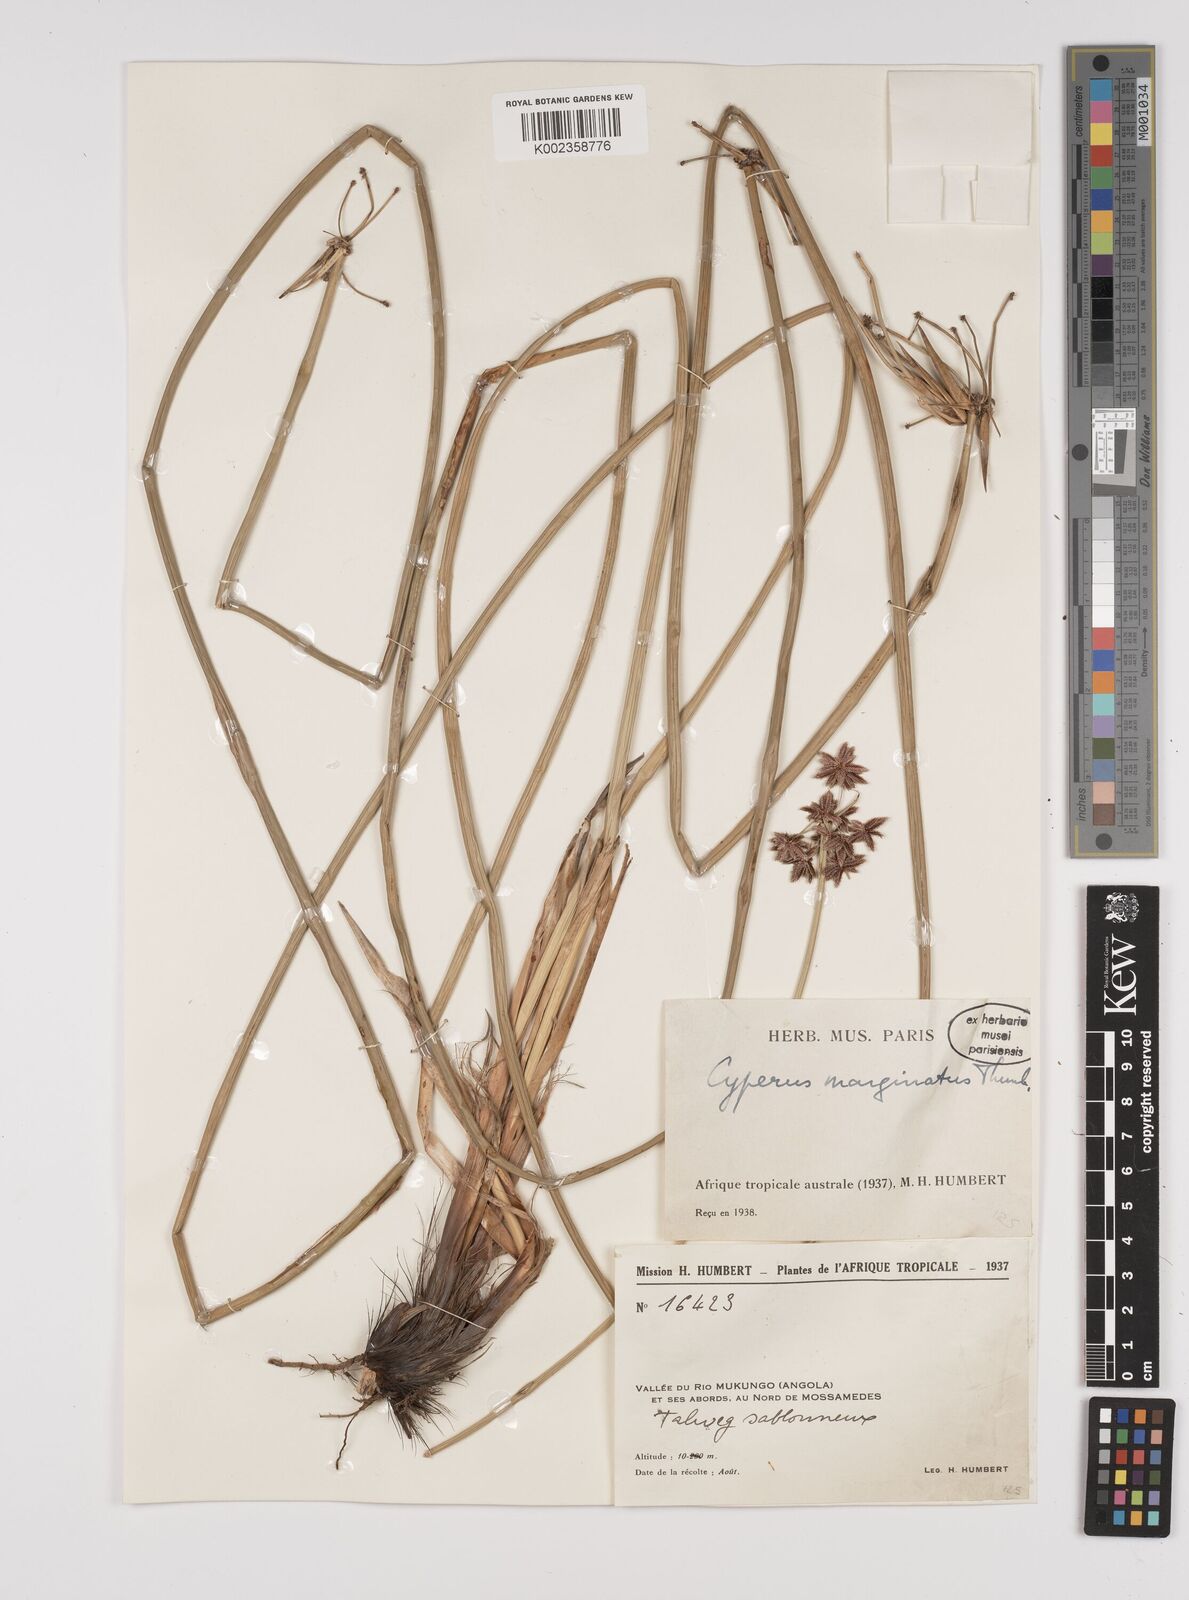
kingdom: Plantae
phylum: Tracheophyta
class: Liliopsida
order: Poales
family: Cyperaceae
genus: Cyperus
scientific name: Cyperus marginatus
